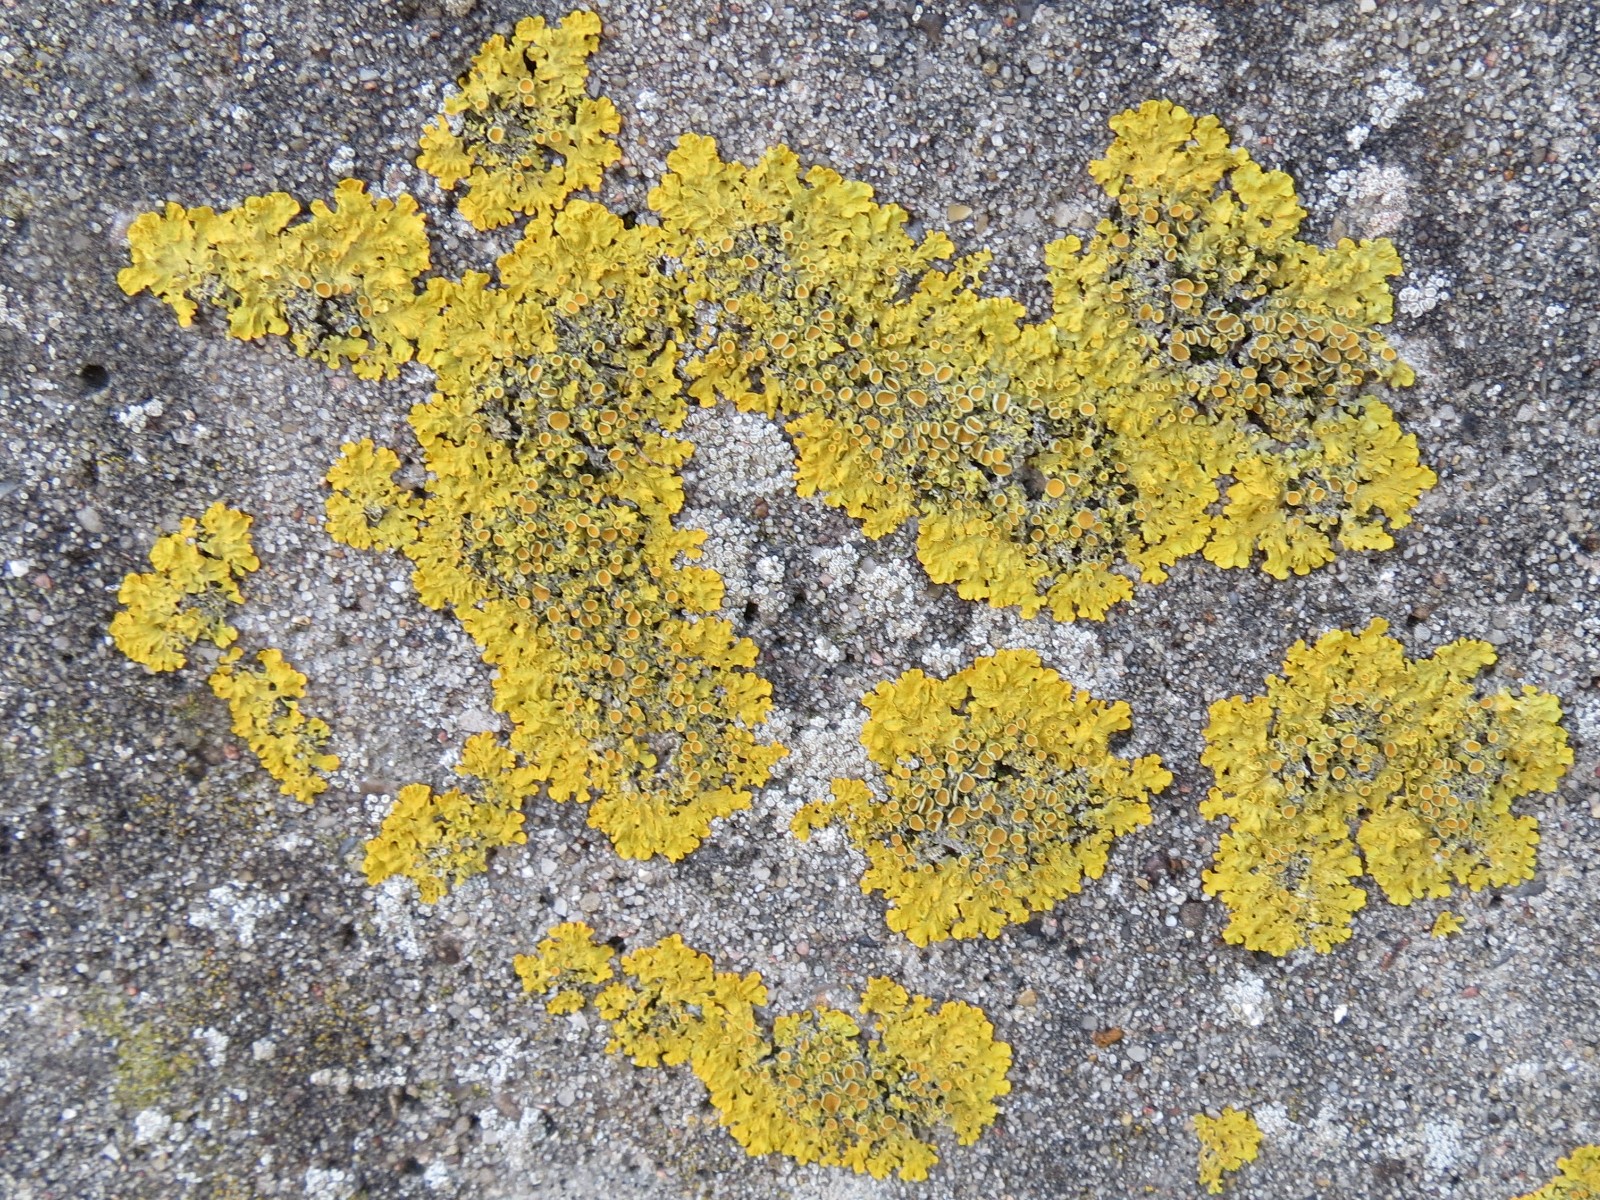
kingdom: Fungi
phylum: Ascomycota
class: Lecanoromycetes
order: Teloschistales
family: Teloschistaceae
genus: Xanthoria
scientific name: Xanthoria parietina
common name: almindelig væggelav
